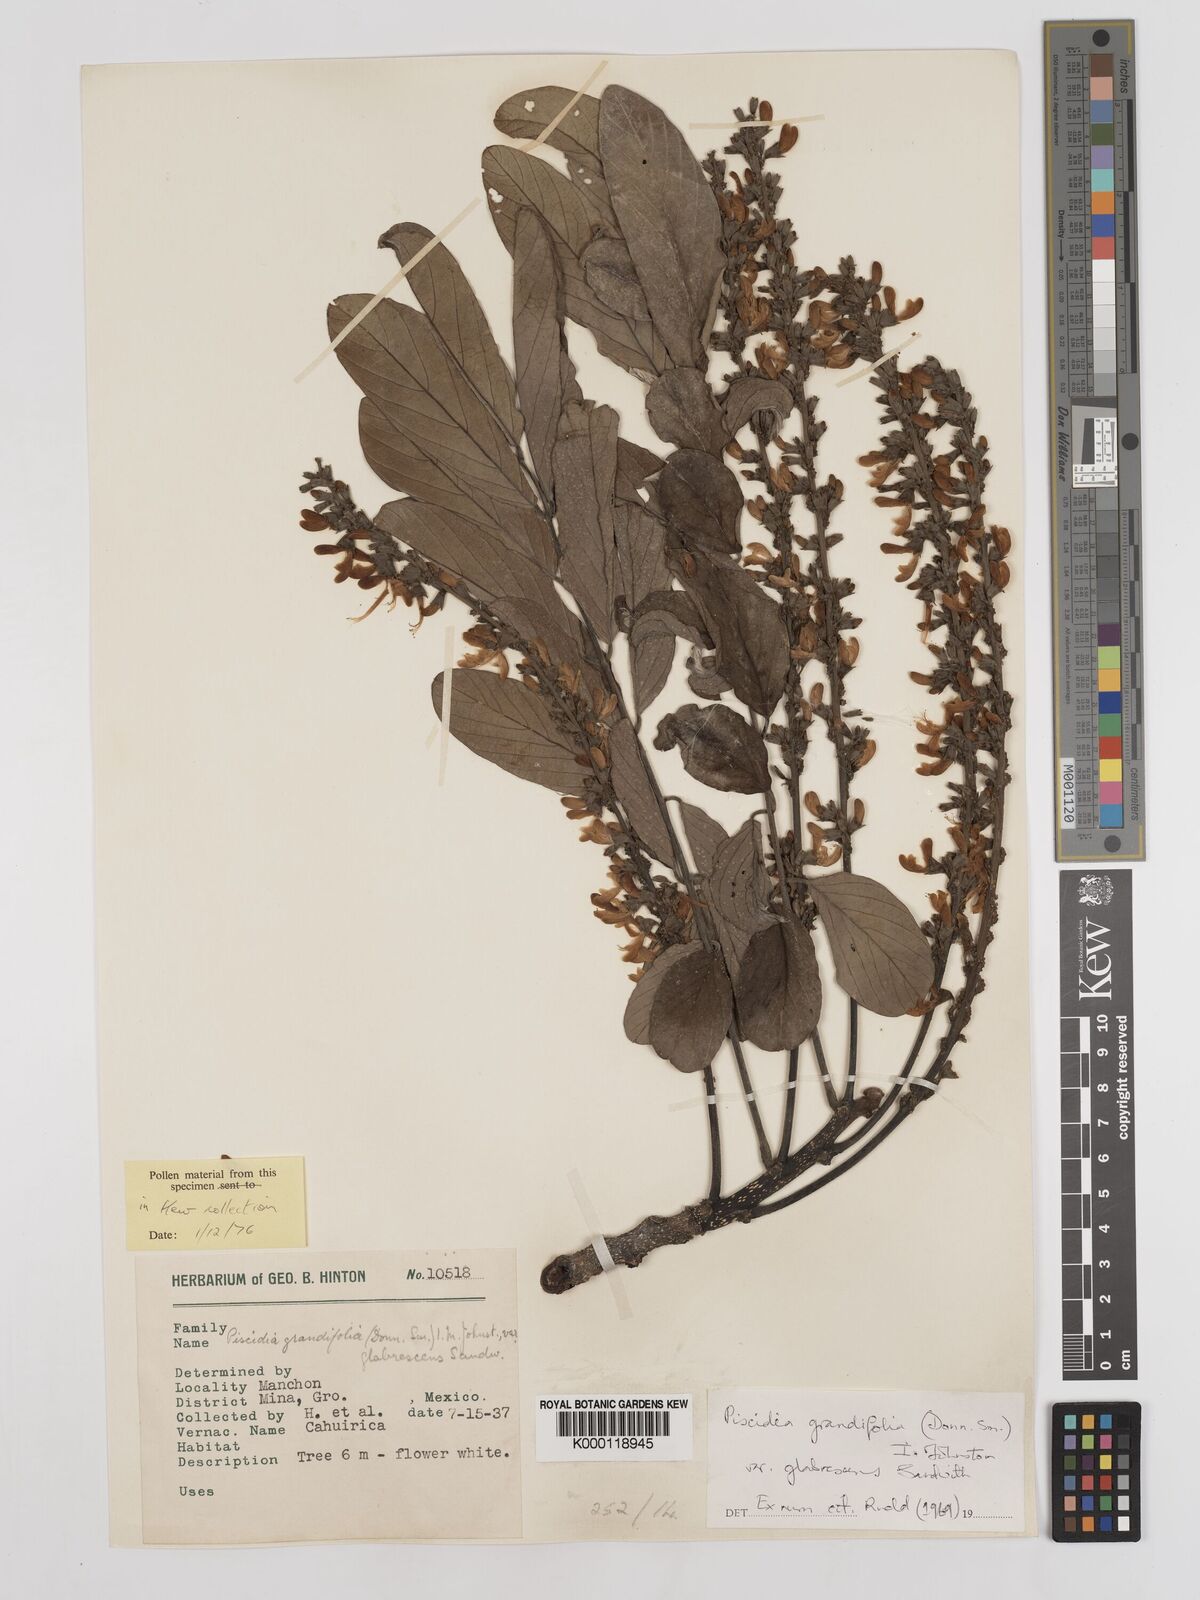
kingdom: Plantae
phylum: Tracheophyta
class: Magnoliopsida
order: Fabales
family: Fabaceae
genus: Piscidia
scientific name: Piscidia grandifolia
